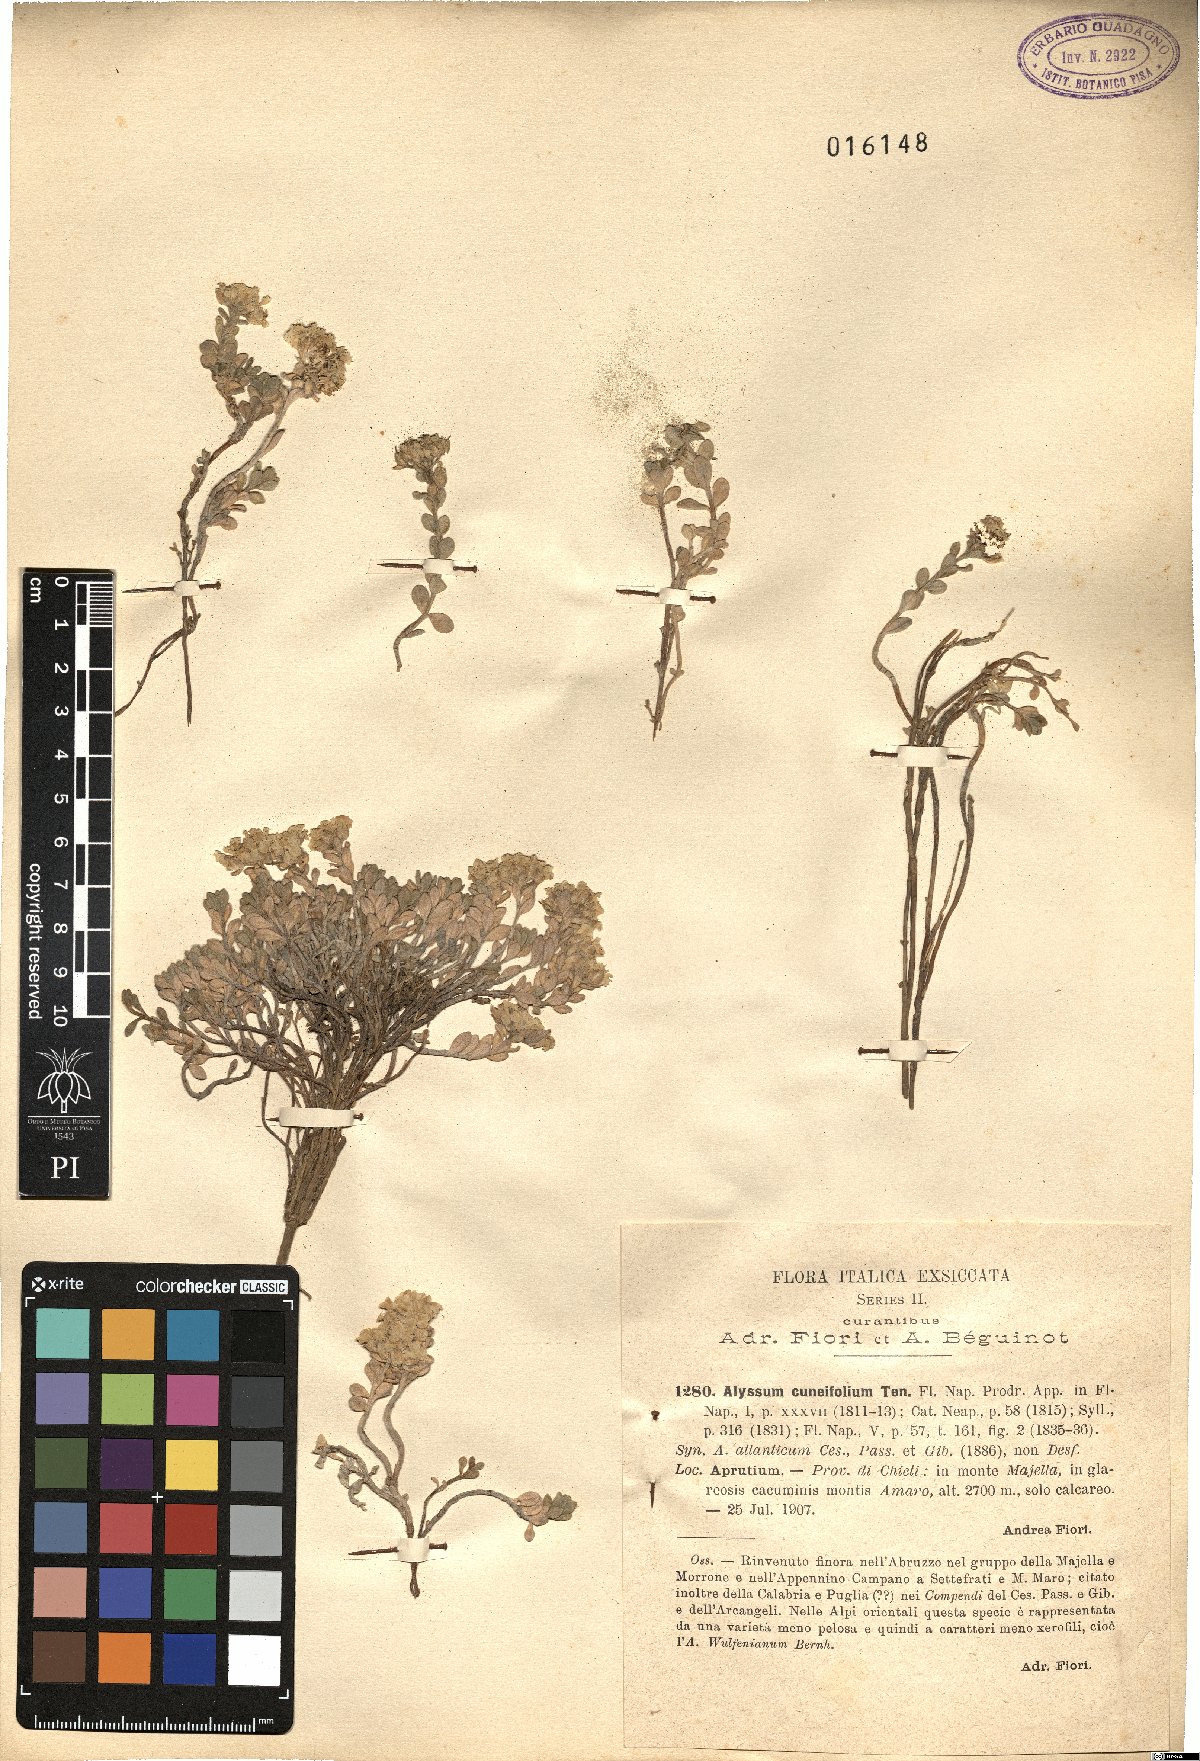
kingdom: Plantae
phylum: Tracheophyta
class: Magnoliopsida
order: Brassicales
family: Brassicaceae
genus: Alyssum
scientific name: Alyssum cuneifolium
